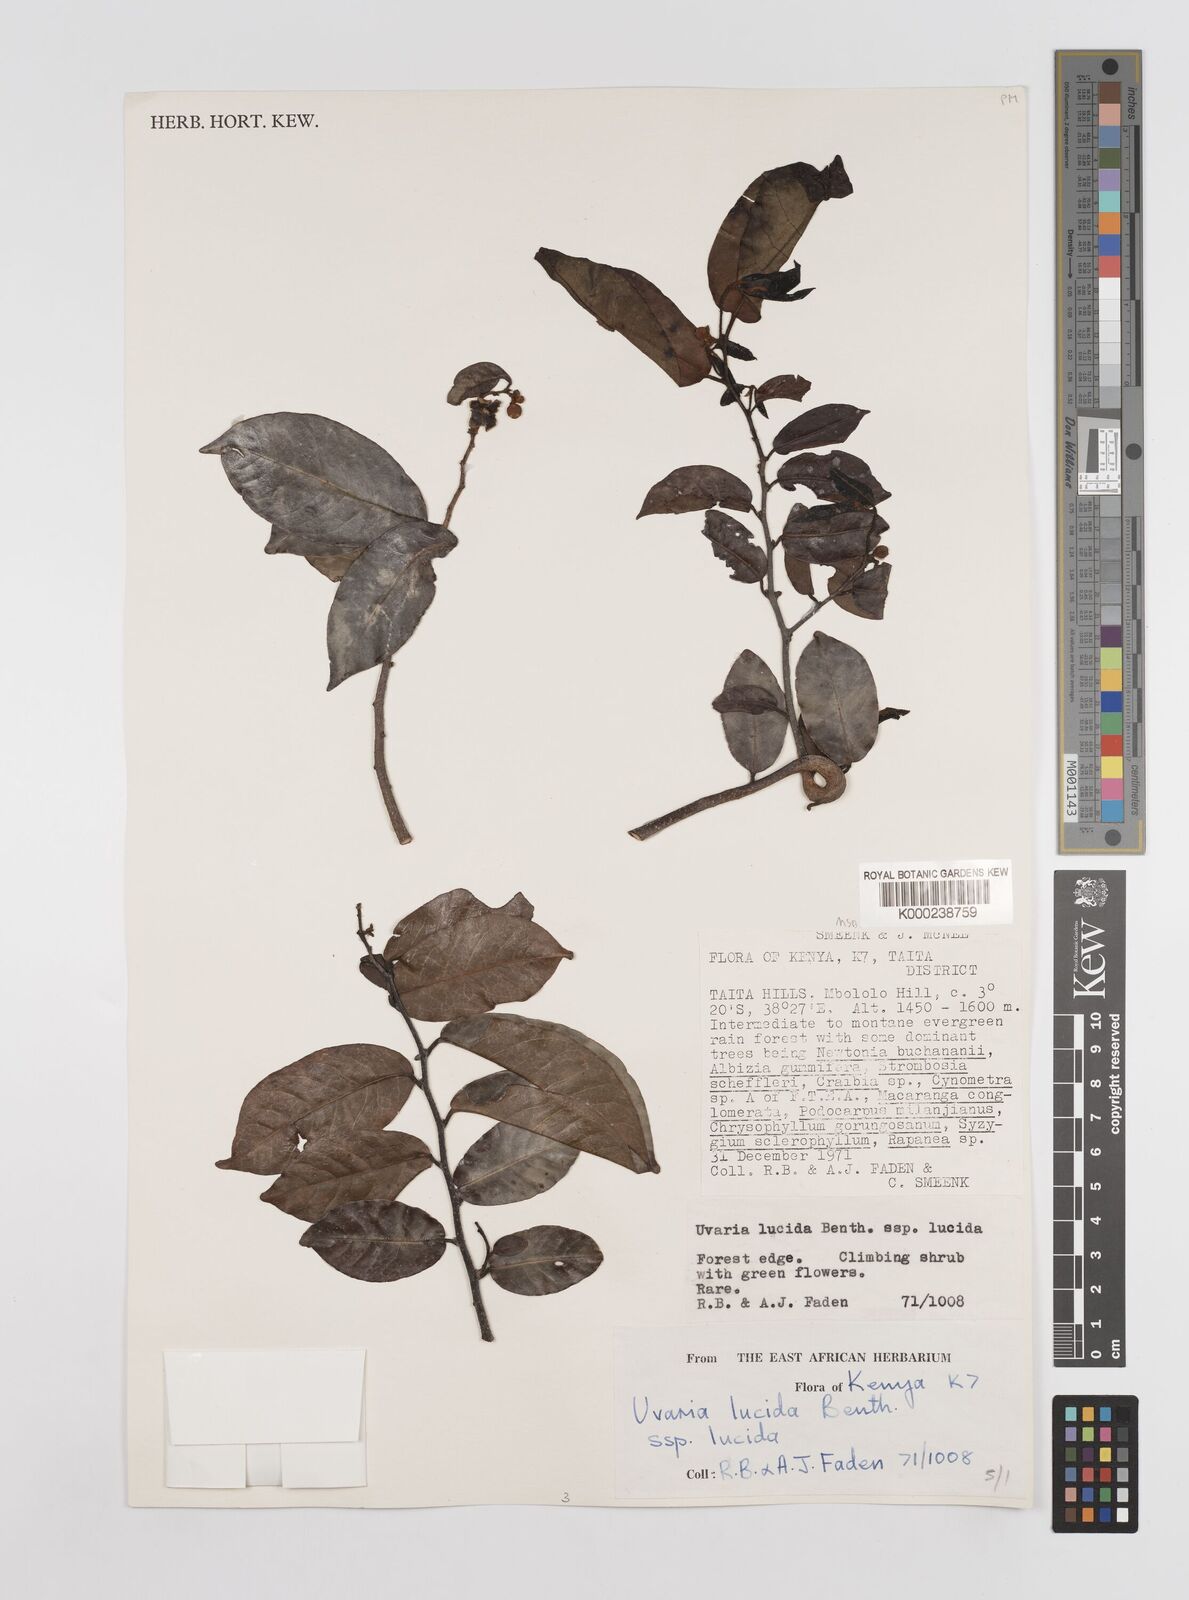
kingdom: Plantae
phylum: Tracheophyta
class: Magnoliopsida
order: Magnoliales
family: Annonaceae
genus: Uvaria
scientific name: Uvaria lucida
